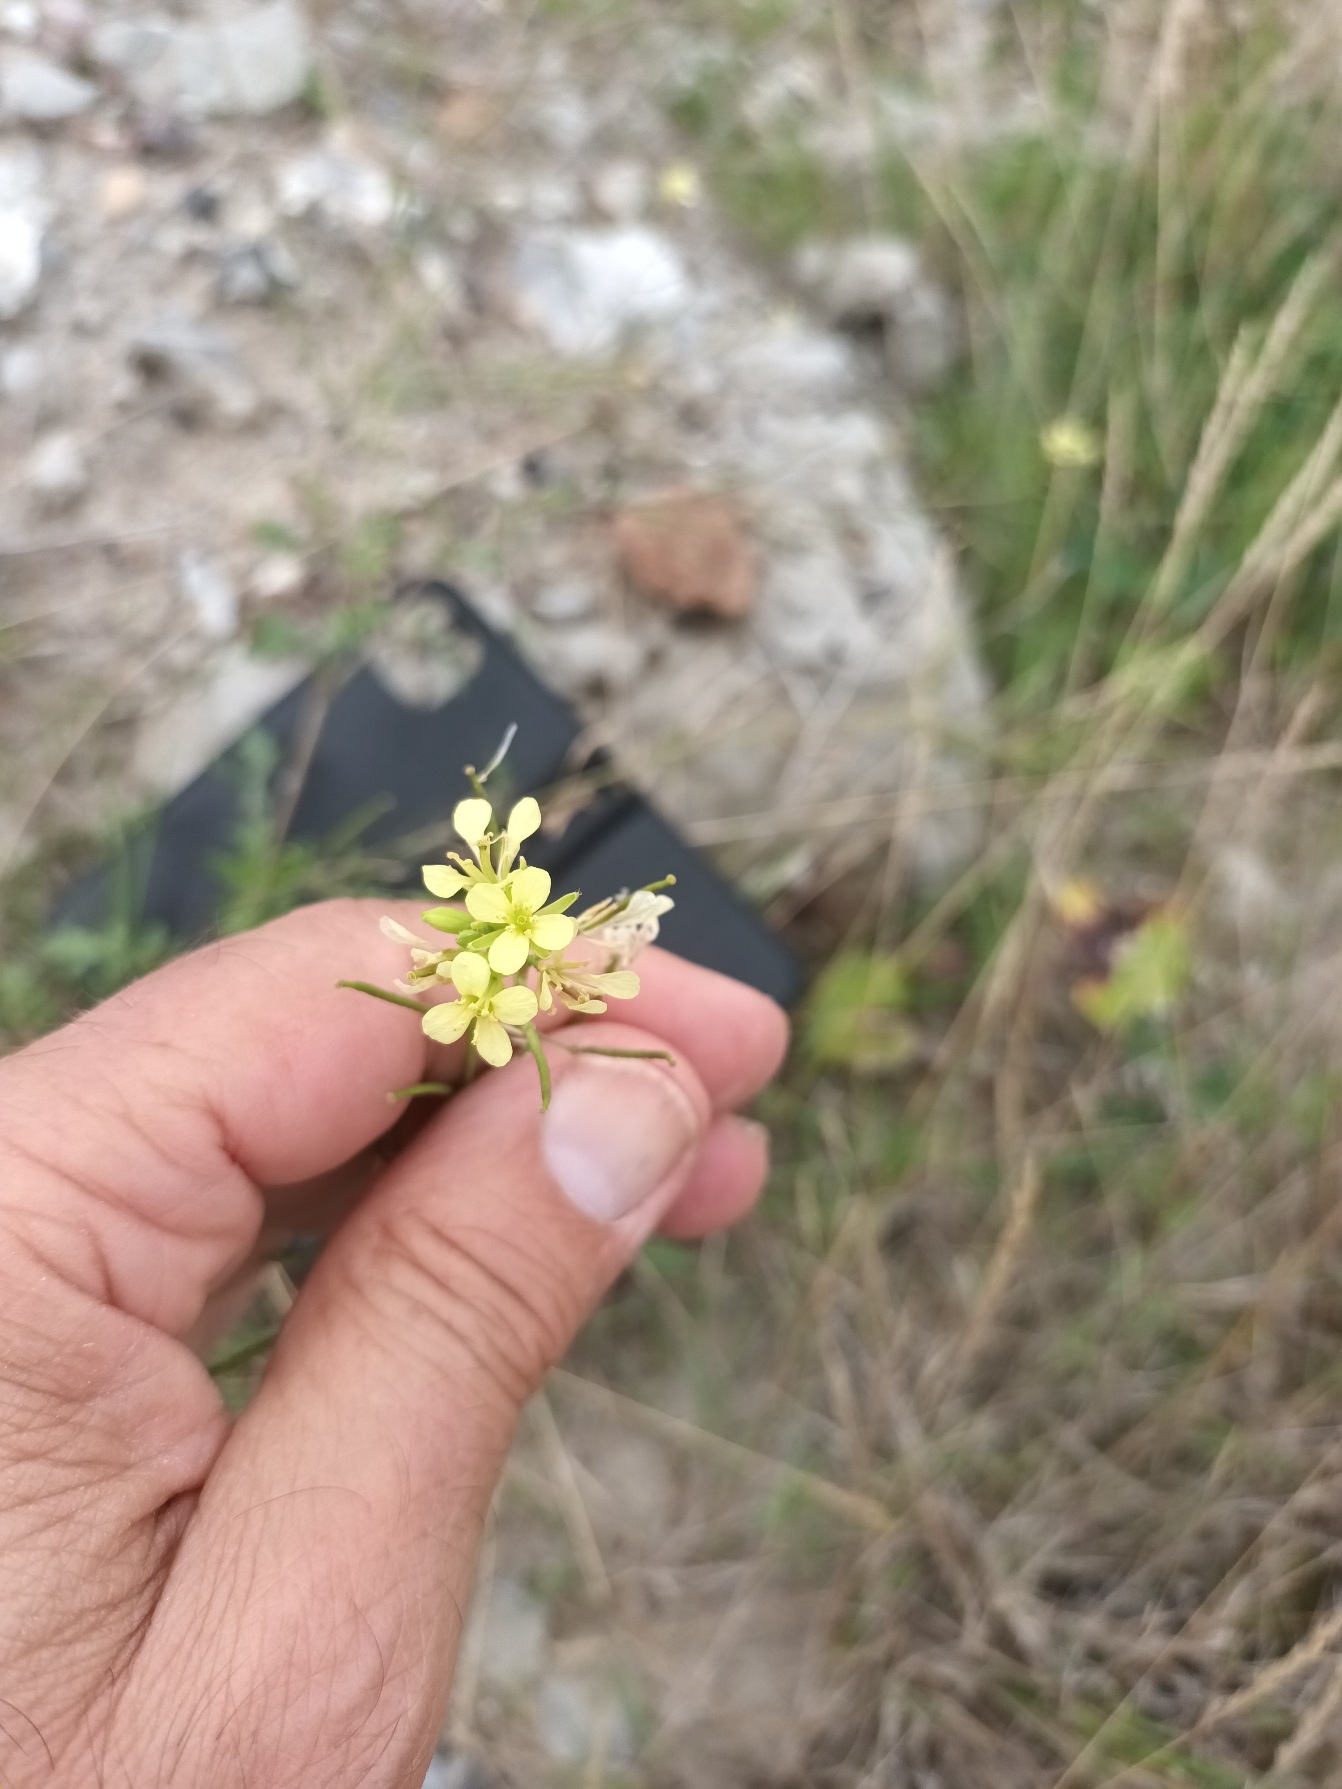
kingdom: Plantae
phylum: Tracheophyta
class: Magnoliopsida
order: Brassicales
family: Brassicaceae
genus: Erucastrum
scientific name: Erucastrum gallicum
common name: Svinesennep
